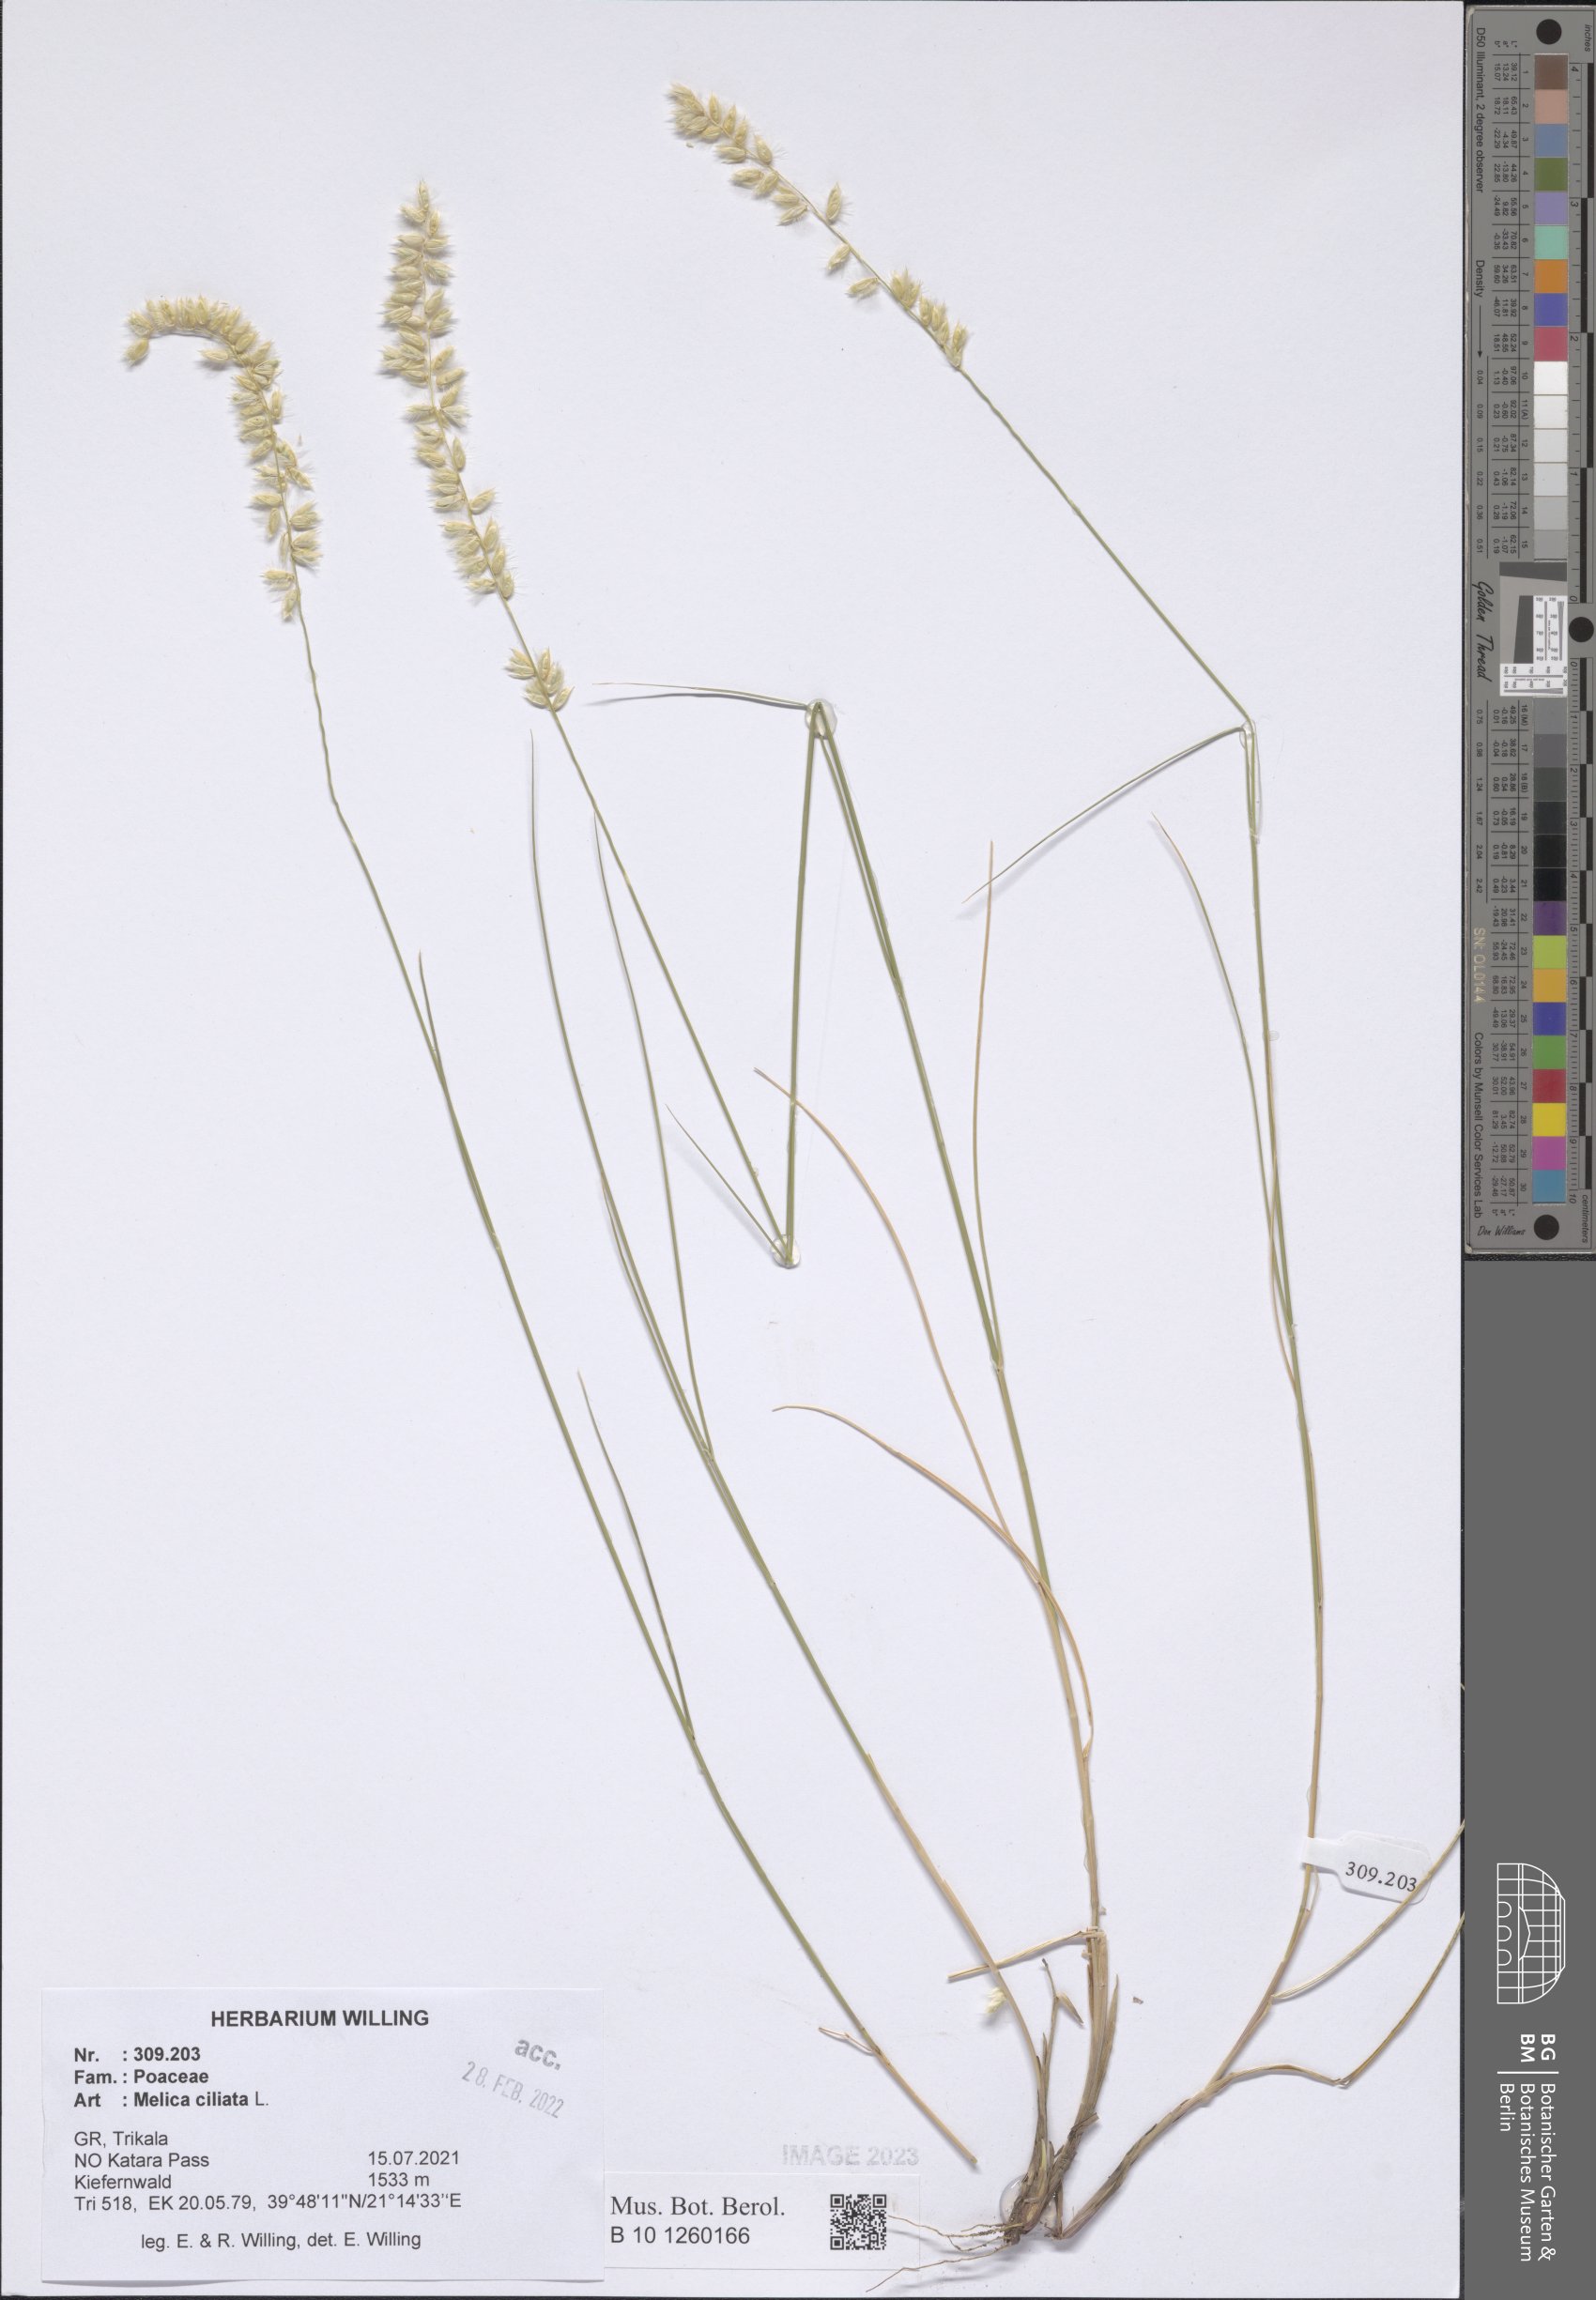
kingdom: Plantae
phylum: Tracheophyta
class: Liliopsida
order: Poales
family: Poaceae
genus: Melica
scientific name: Melica ciliata
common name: Hairy melicgrass
